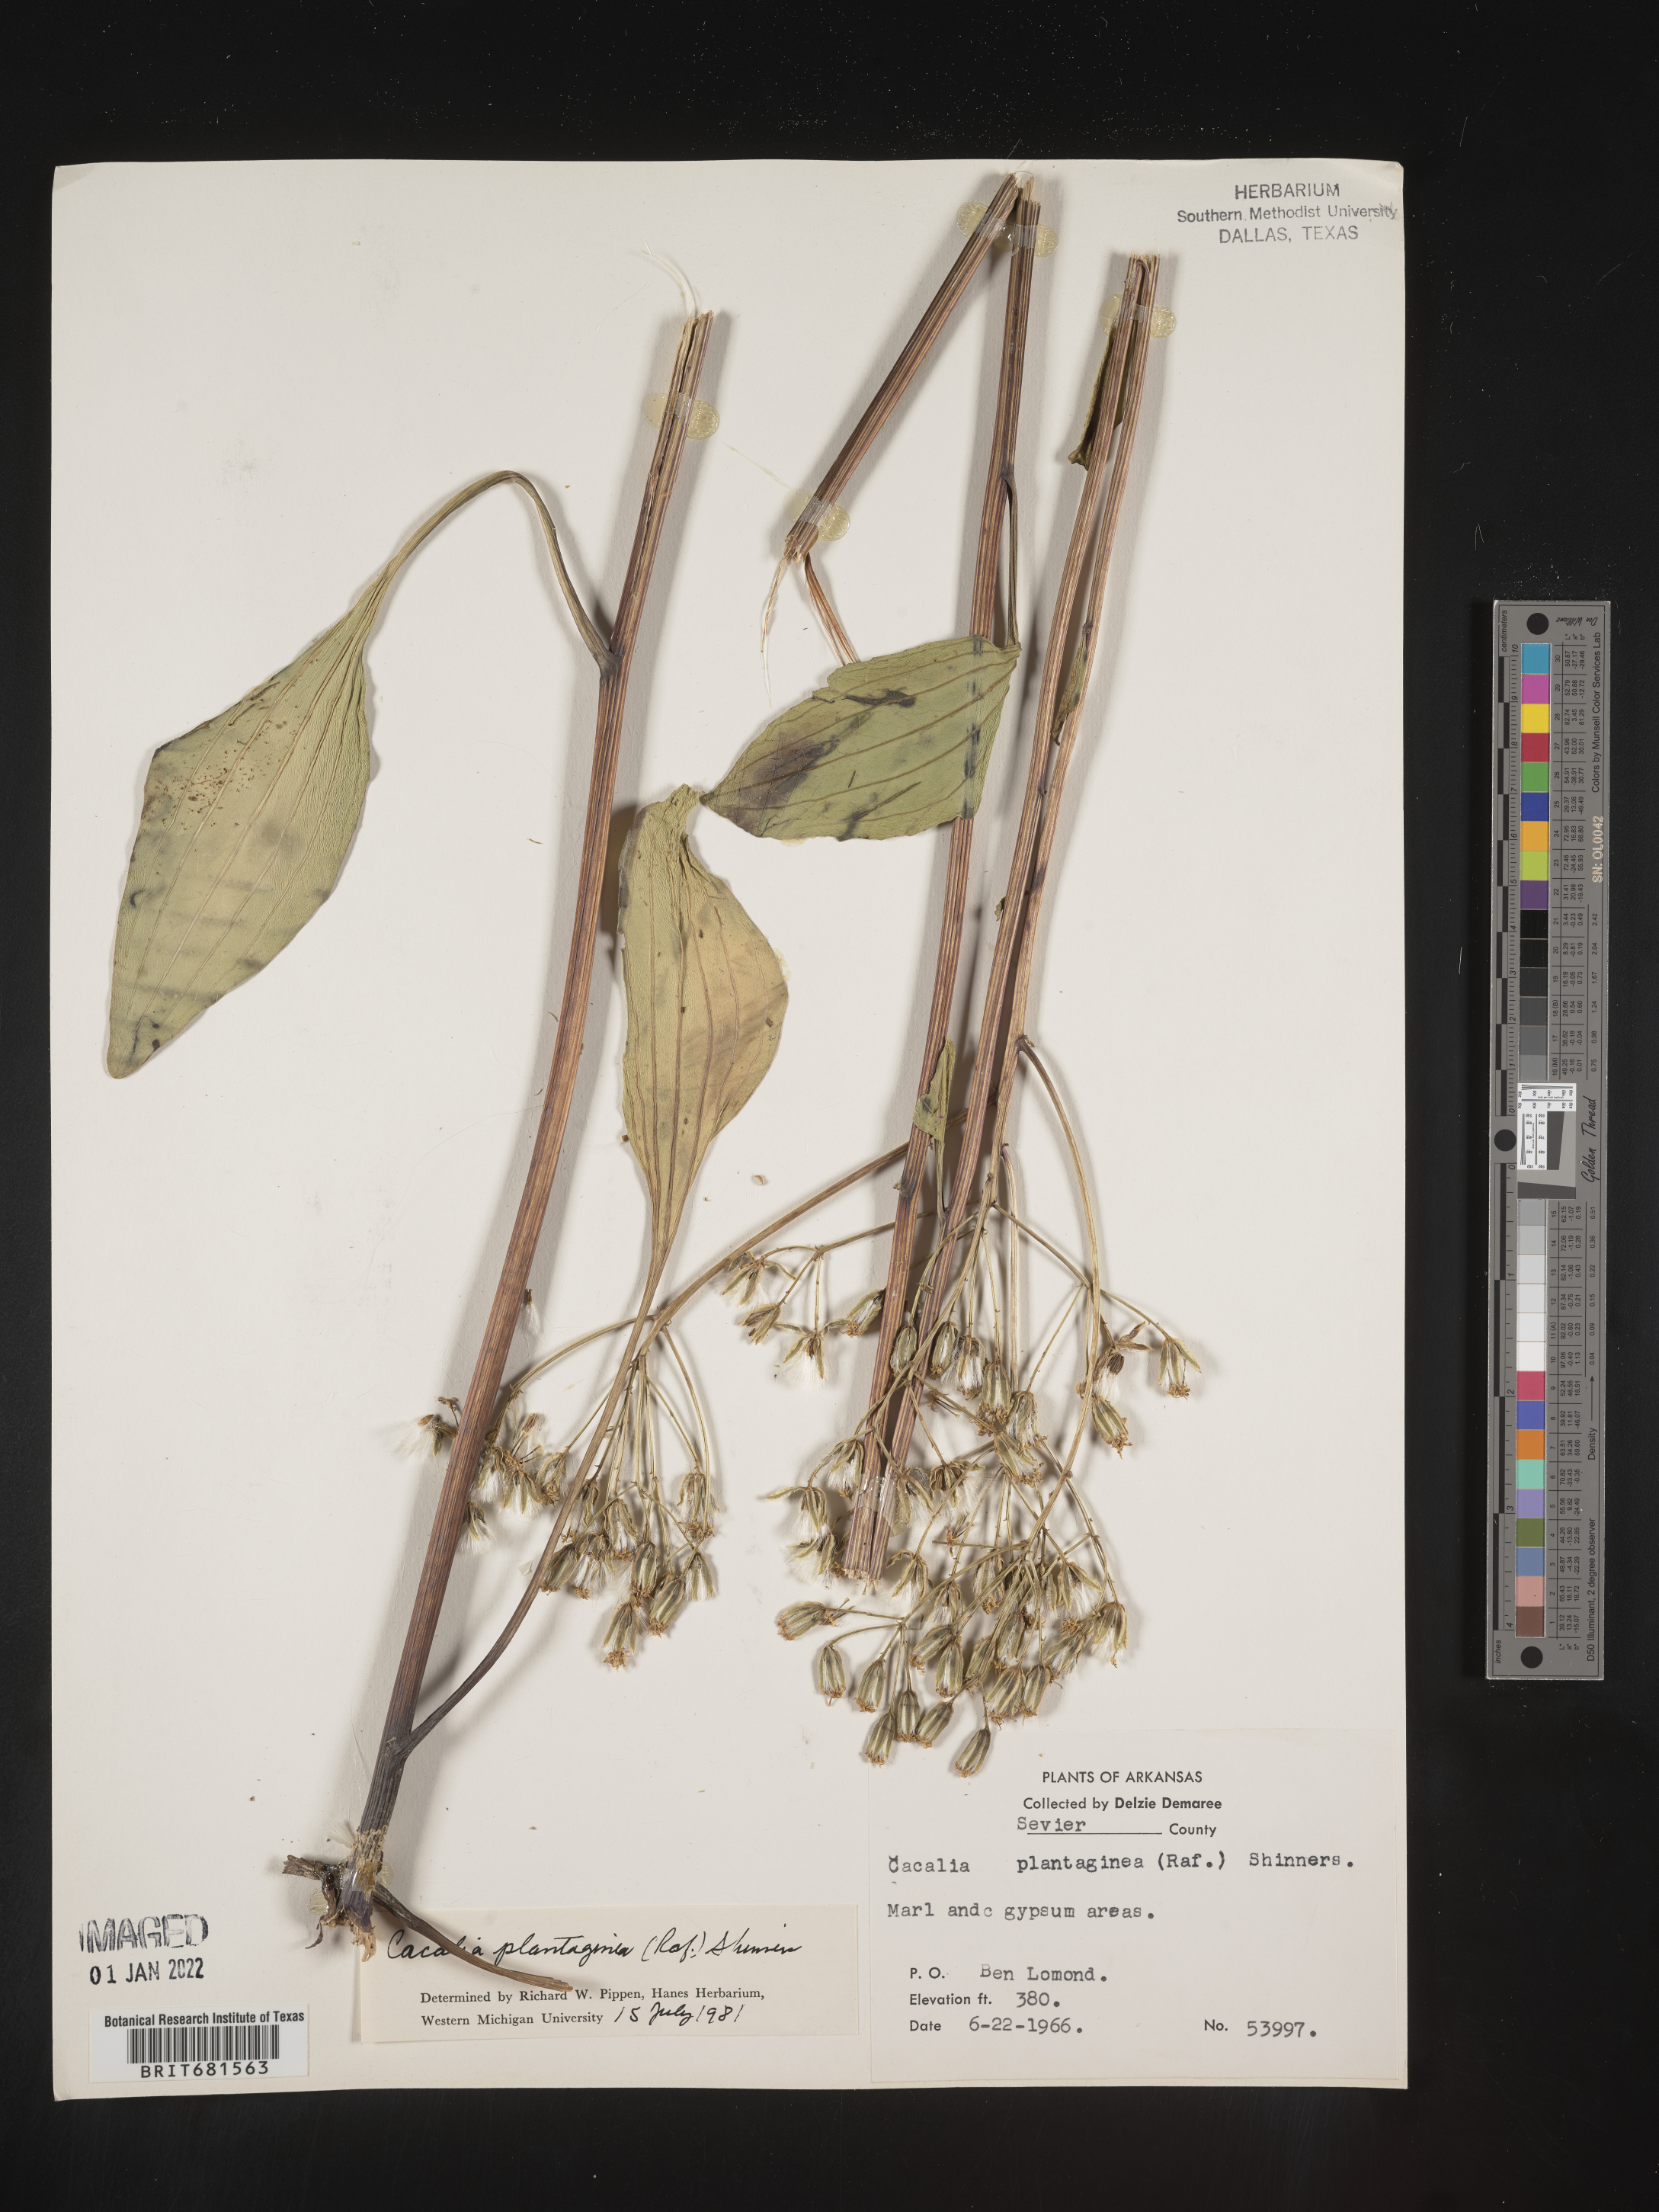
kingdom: Plantae
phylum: Tracheophyta
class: Magnoliopsida
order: Asterales
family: Asteraceae
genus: Arnoglossum
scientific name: Arnoglossum plantagineum
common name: Groove-stemmed indian-plantain
